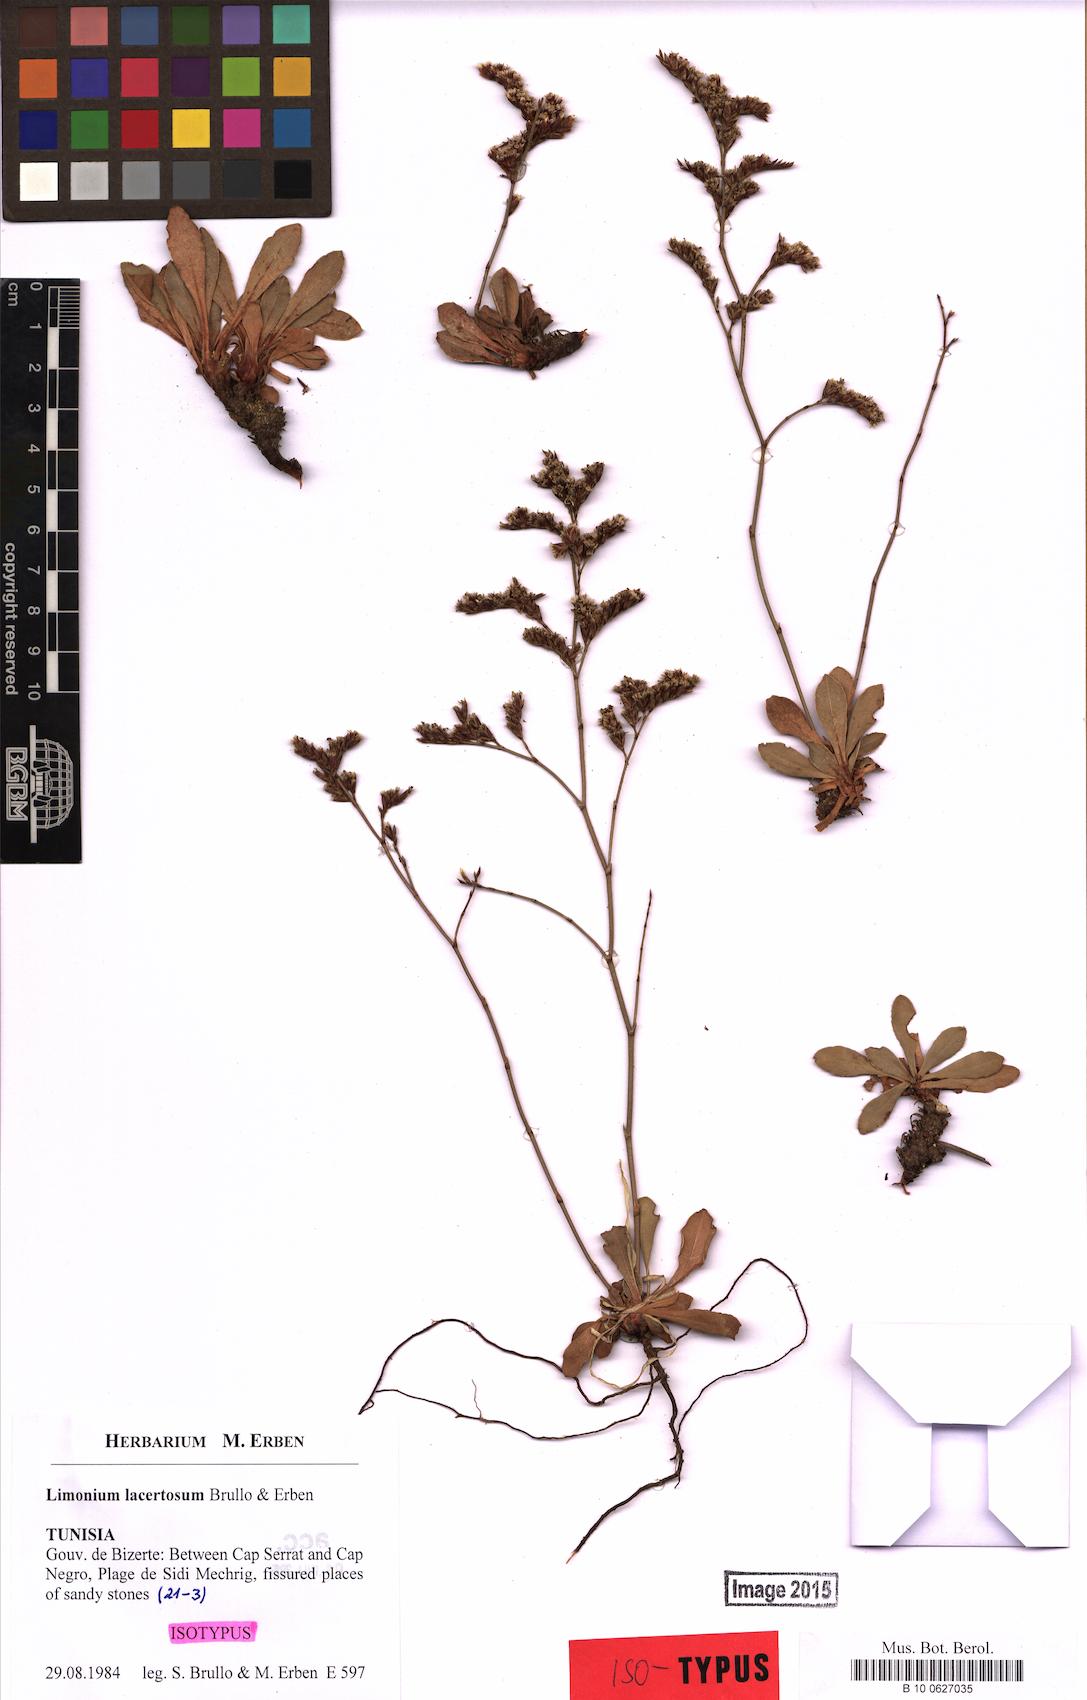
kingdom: Plantae
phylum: Tracheophyta
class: Magnoliopsida
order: Caryophyllales
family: Plumbaginaceae
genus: Limonium
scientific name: Limonium lacertosum
